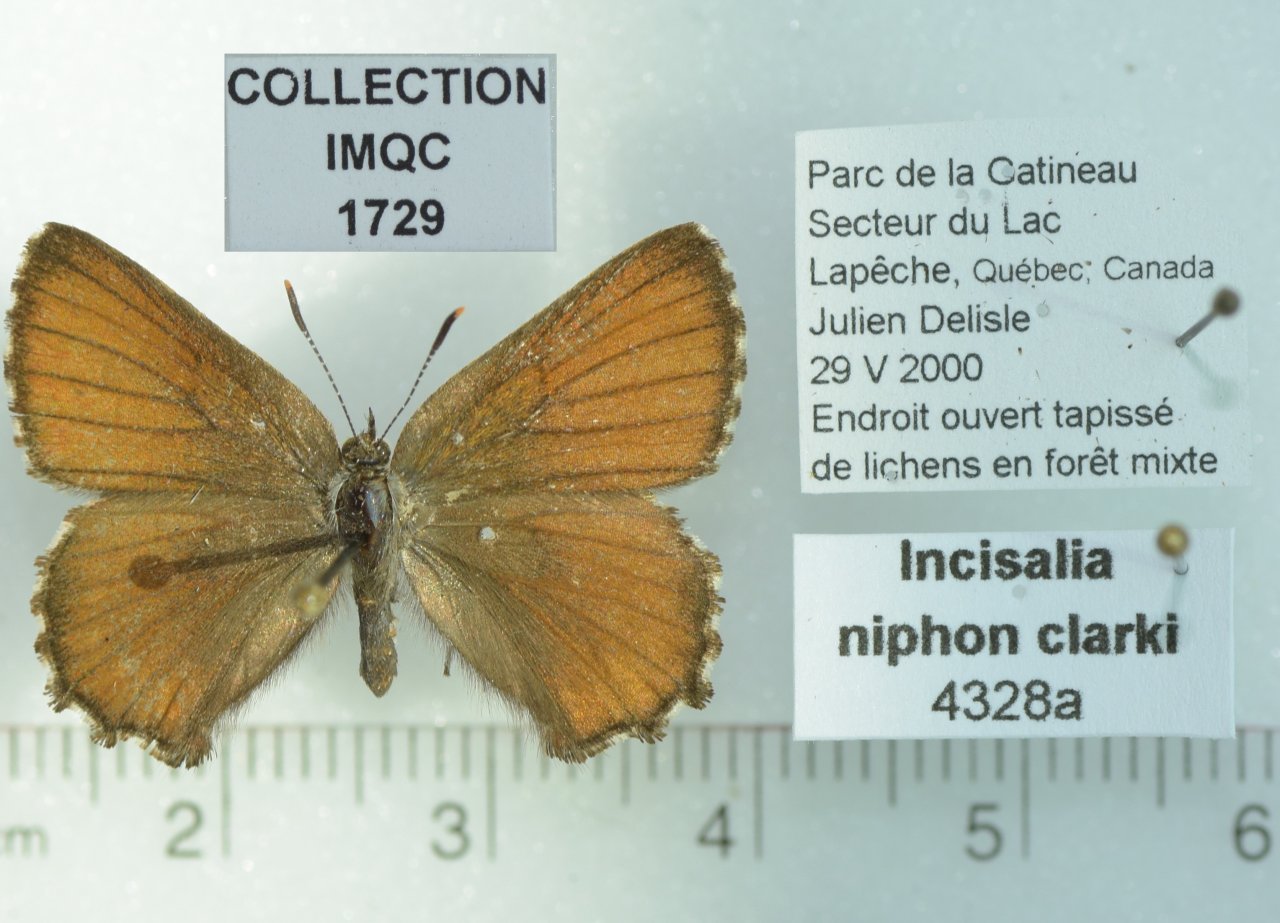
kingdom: Animalia
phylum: Arthropoda
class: Insecta
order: Lepidoptera
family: Lycaenidae
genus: Incisalia
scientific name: Incisalia niphon
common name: Eastern Pine Elfin
